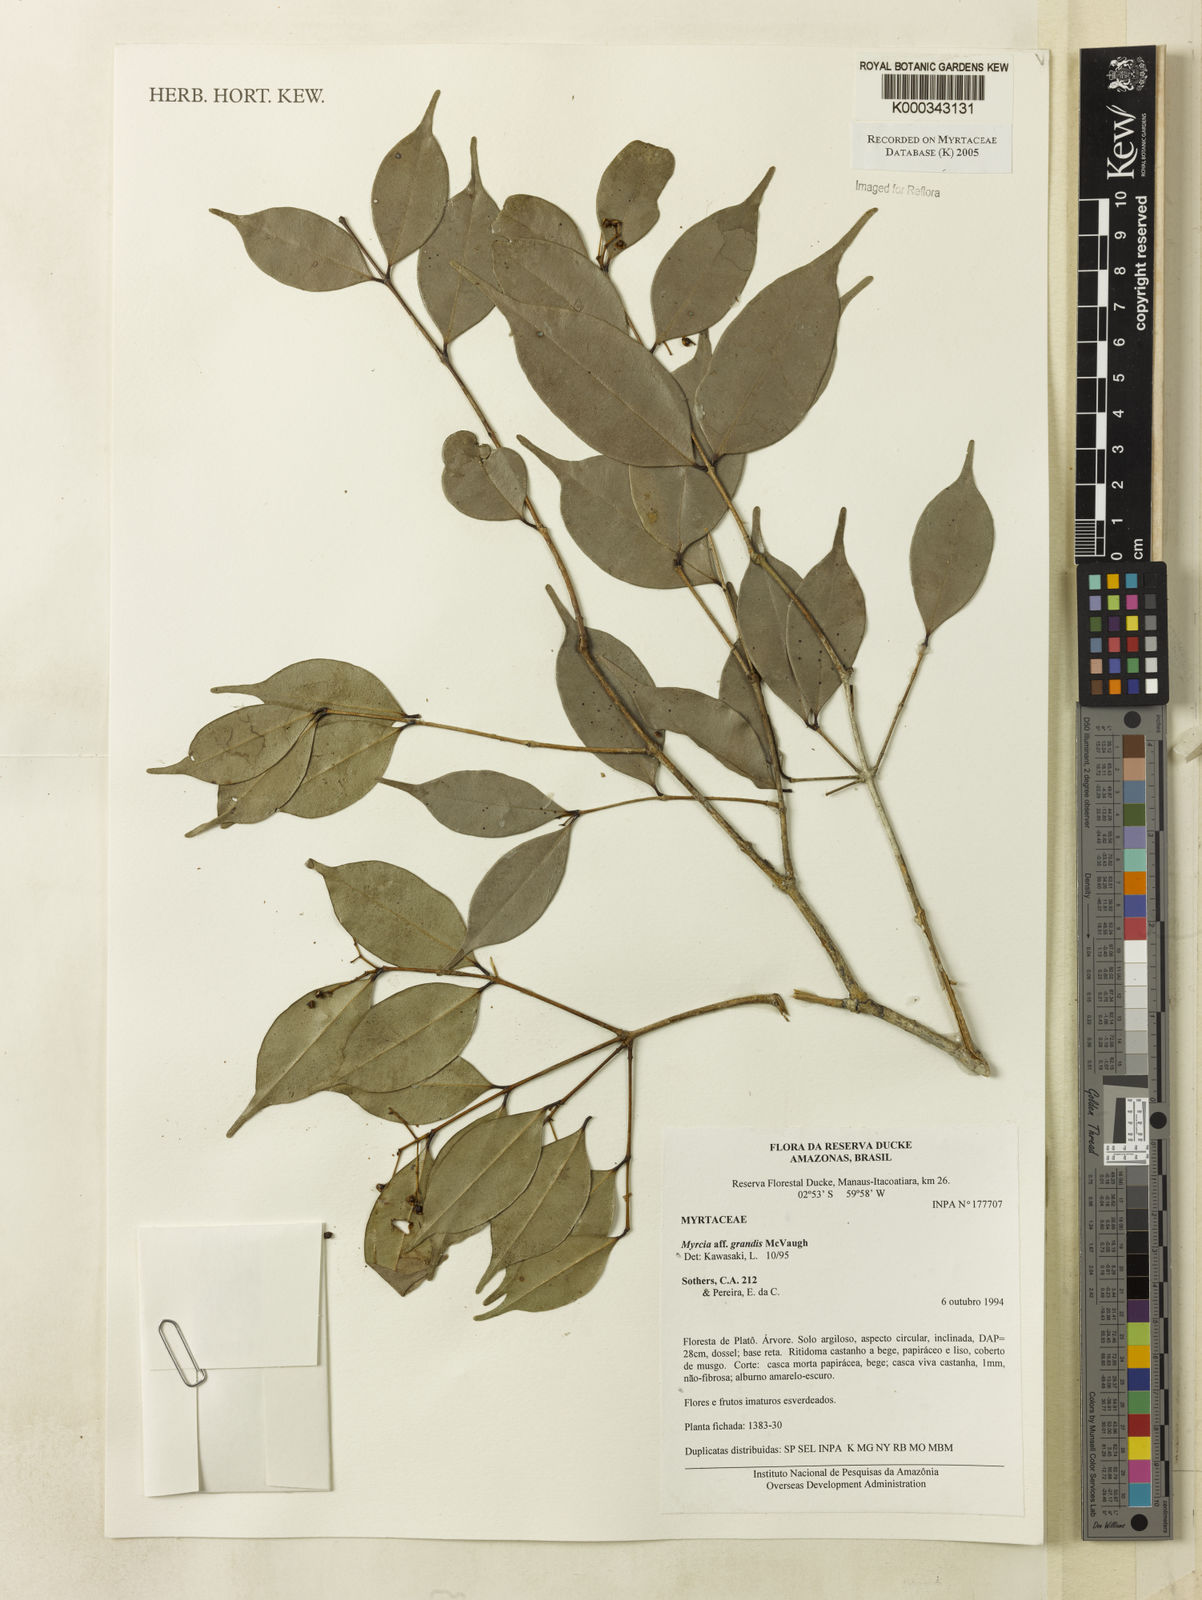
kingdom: Plantae
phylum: Tracheophyta
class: Magnoliopsida
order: Myrtales
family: Myrtaceae
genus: Myrcia
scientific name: Myrcia grandis
